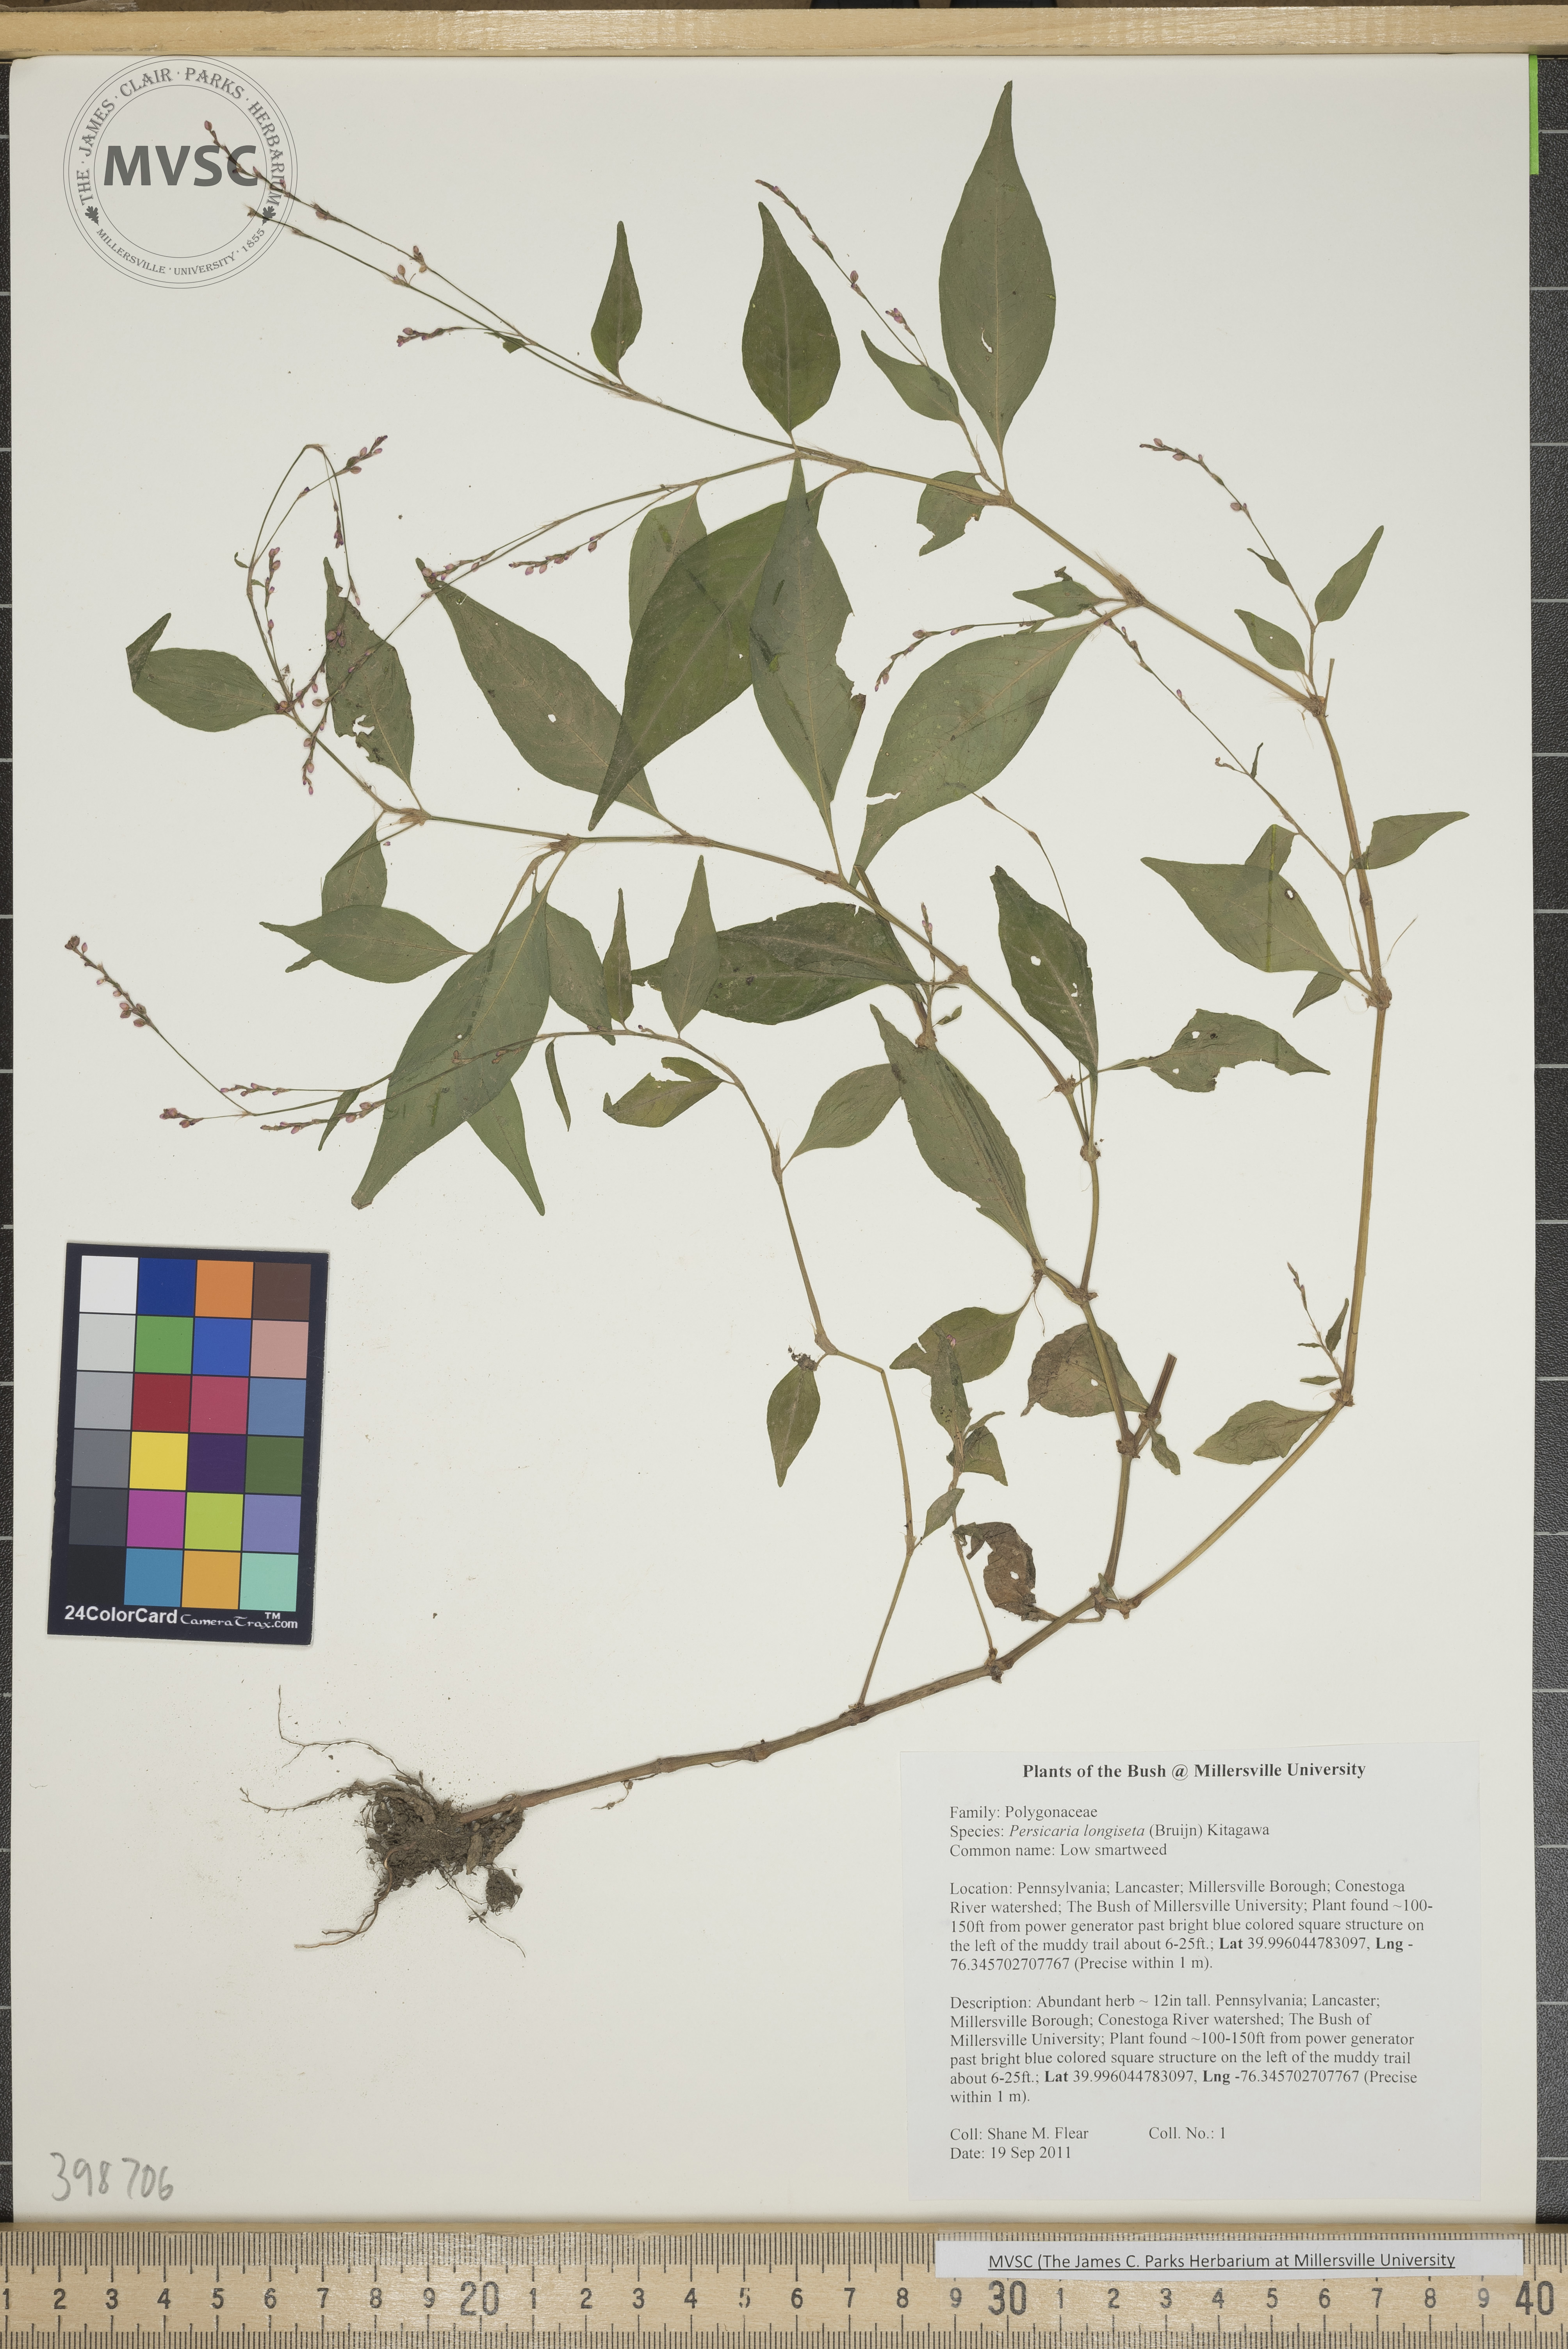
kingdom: Plantae
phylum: Tracheophyta
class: Magnoliopsida
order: Caryophyllales
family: Polygonaceae
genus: Persicaria
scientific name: Persicaria longiseta
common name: Low smartweed
